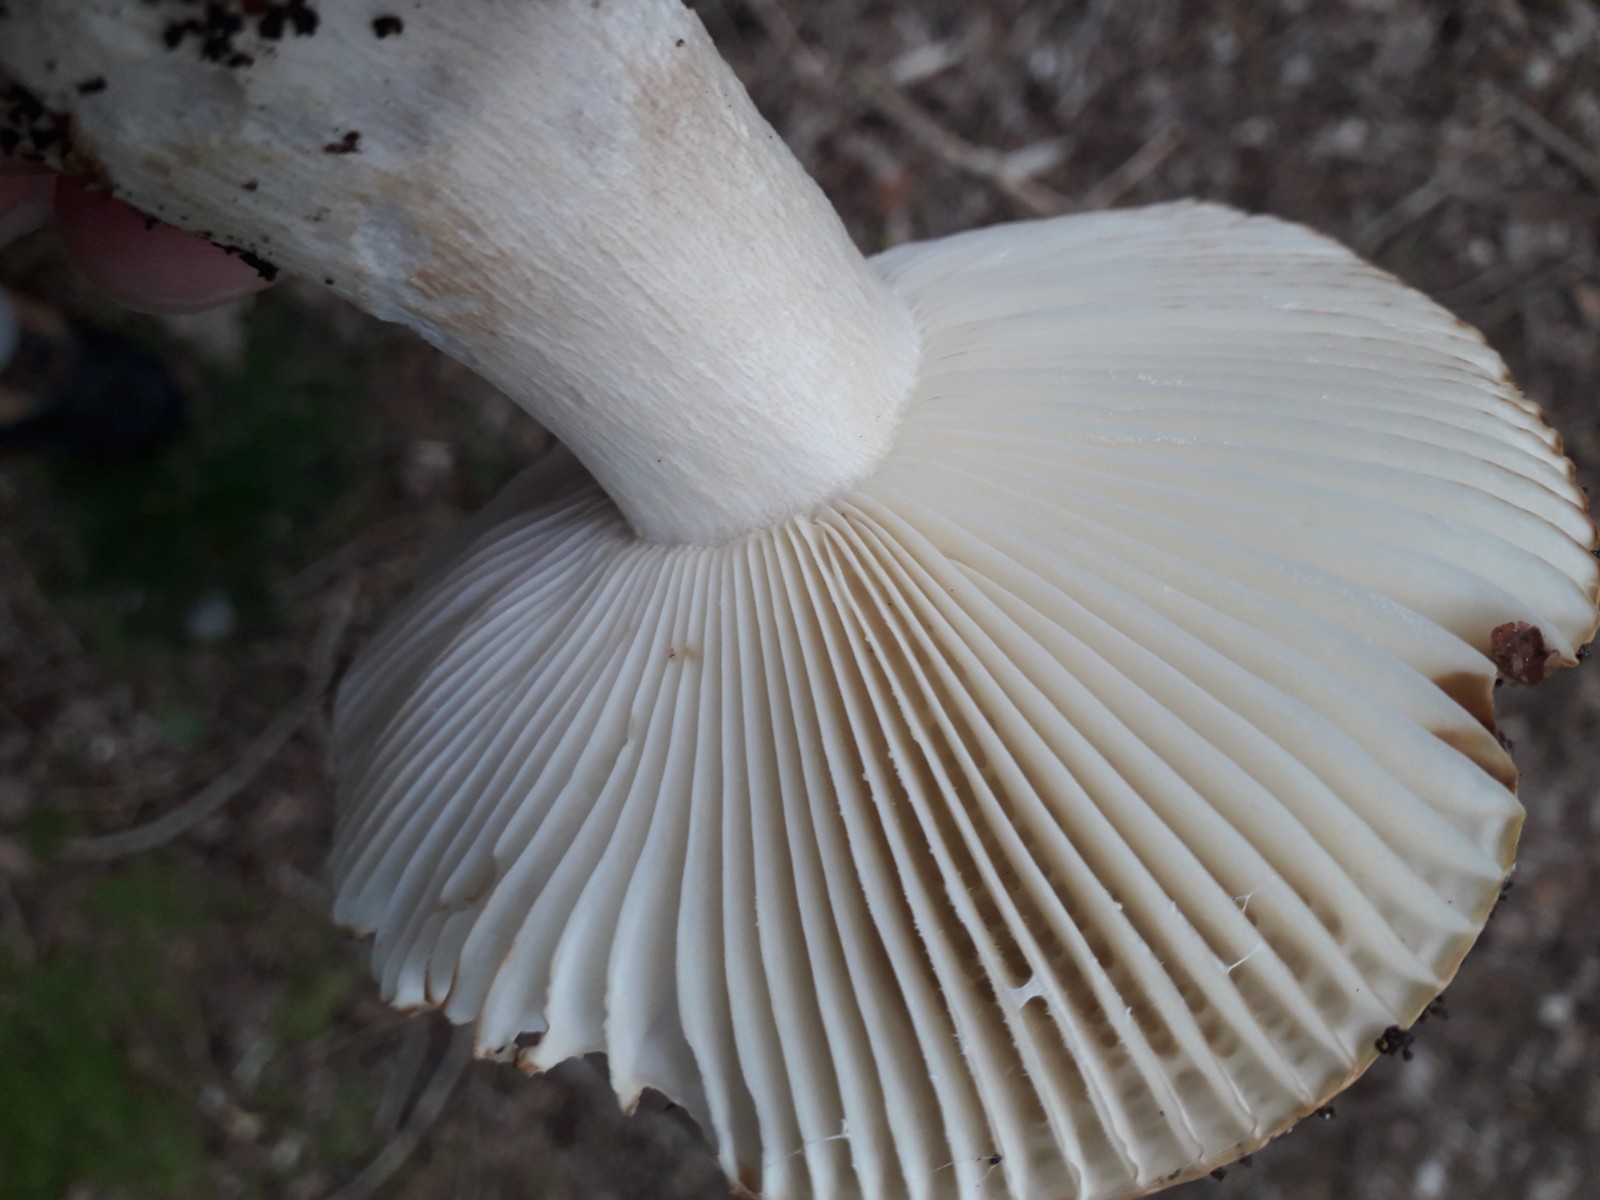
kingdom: Fungi
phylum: Basidiomycota
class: Agaricomycetes
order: Russulales
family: Russulaceae
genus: Russula
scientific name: Russula ochroleuca
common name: okkergul skørhat
